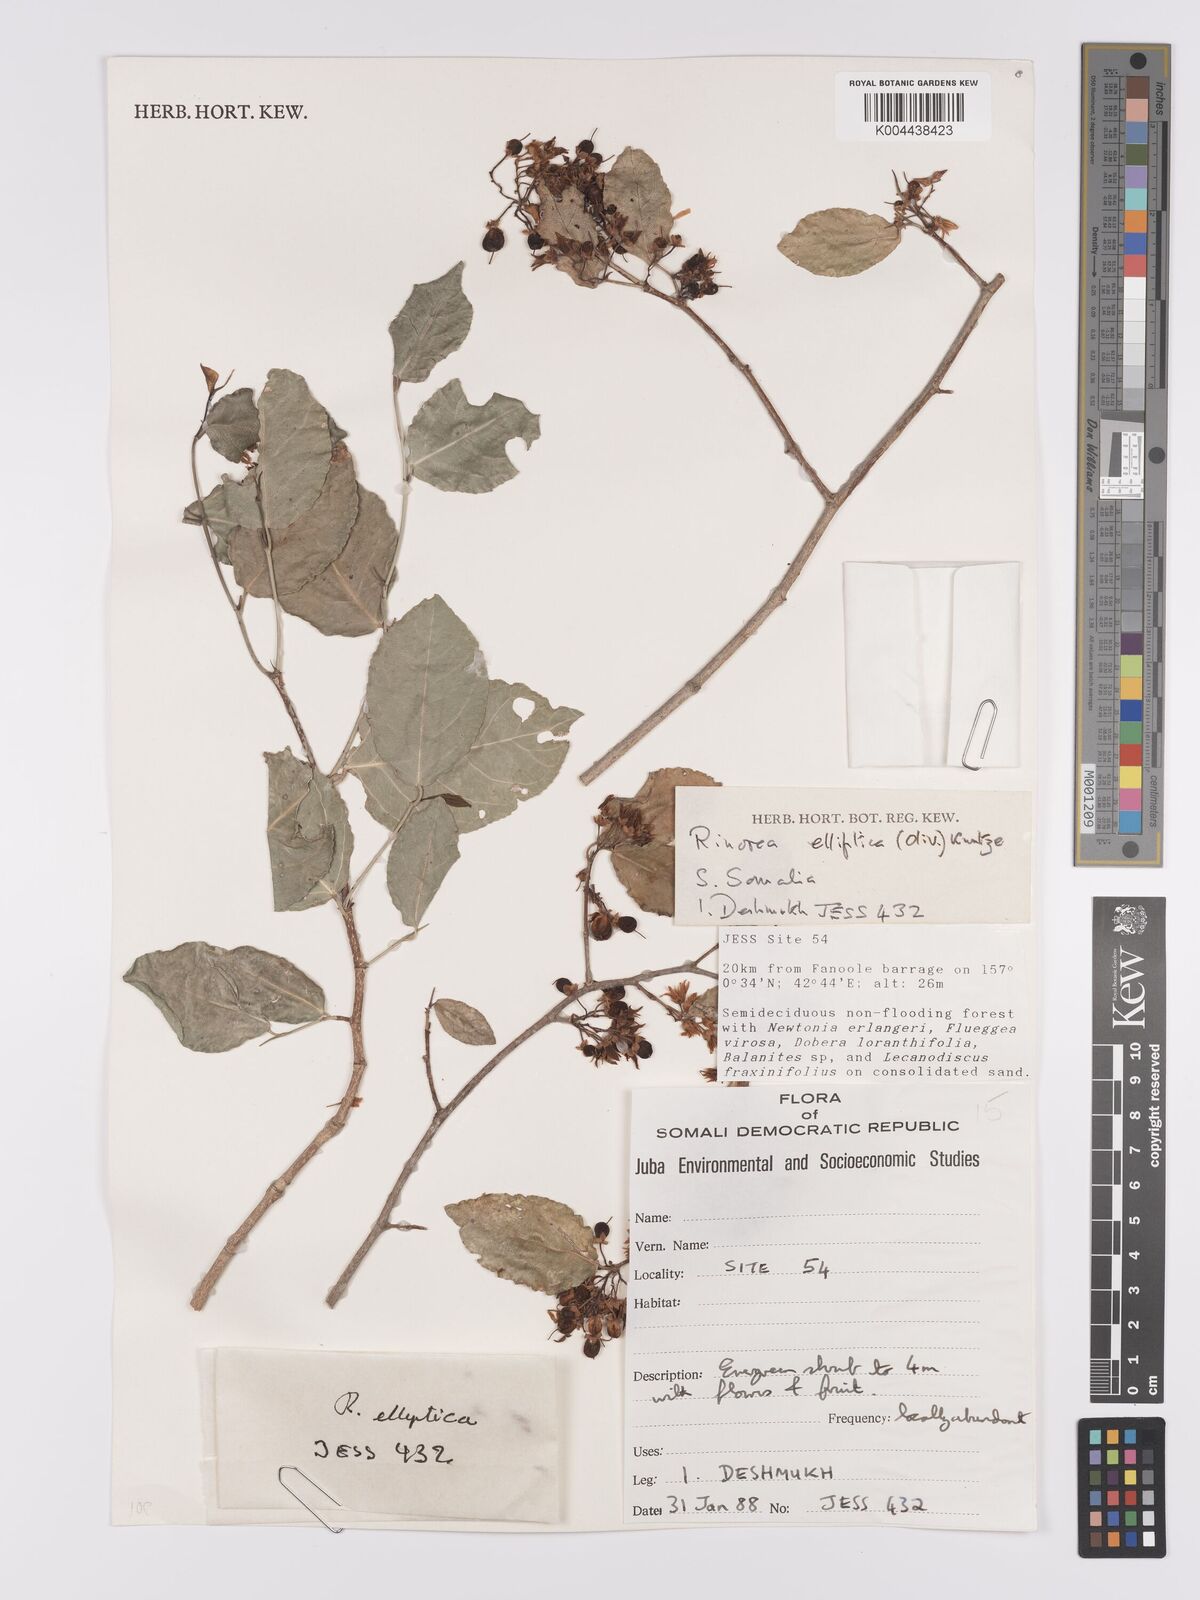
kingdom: Plantae
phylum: Tracheophyta
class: Magnoliopsida
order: Malpighiales
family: Violaceae
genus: Rinorea
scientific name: Rinorea elliptica
